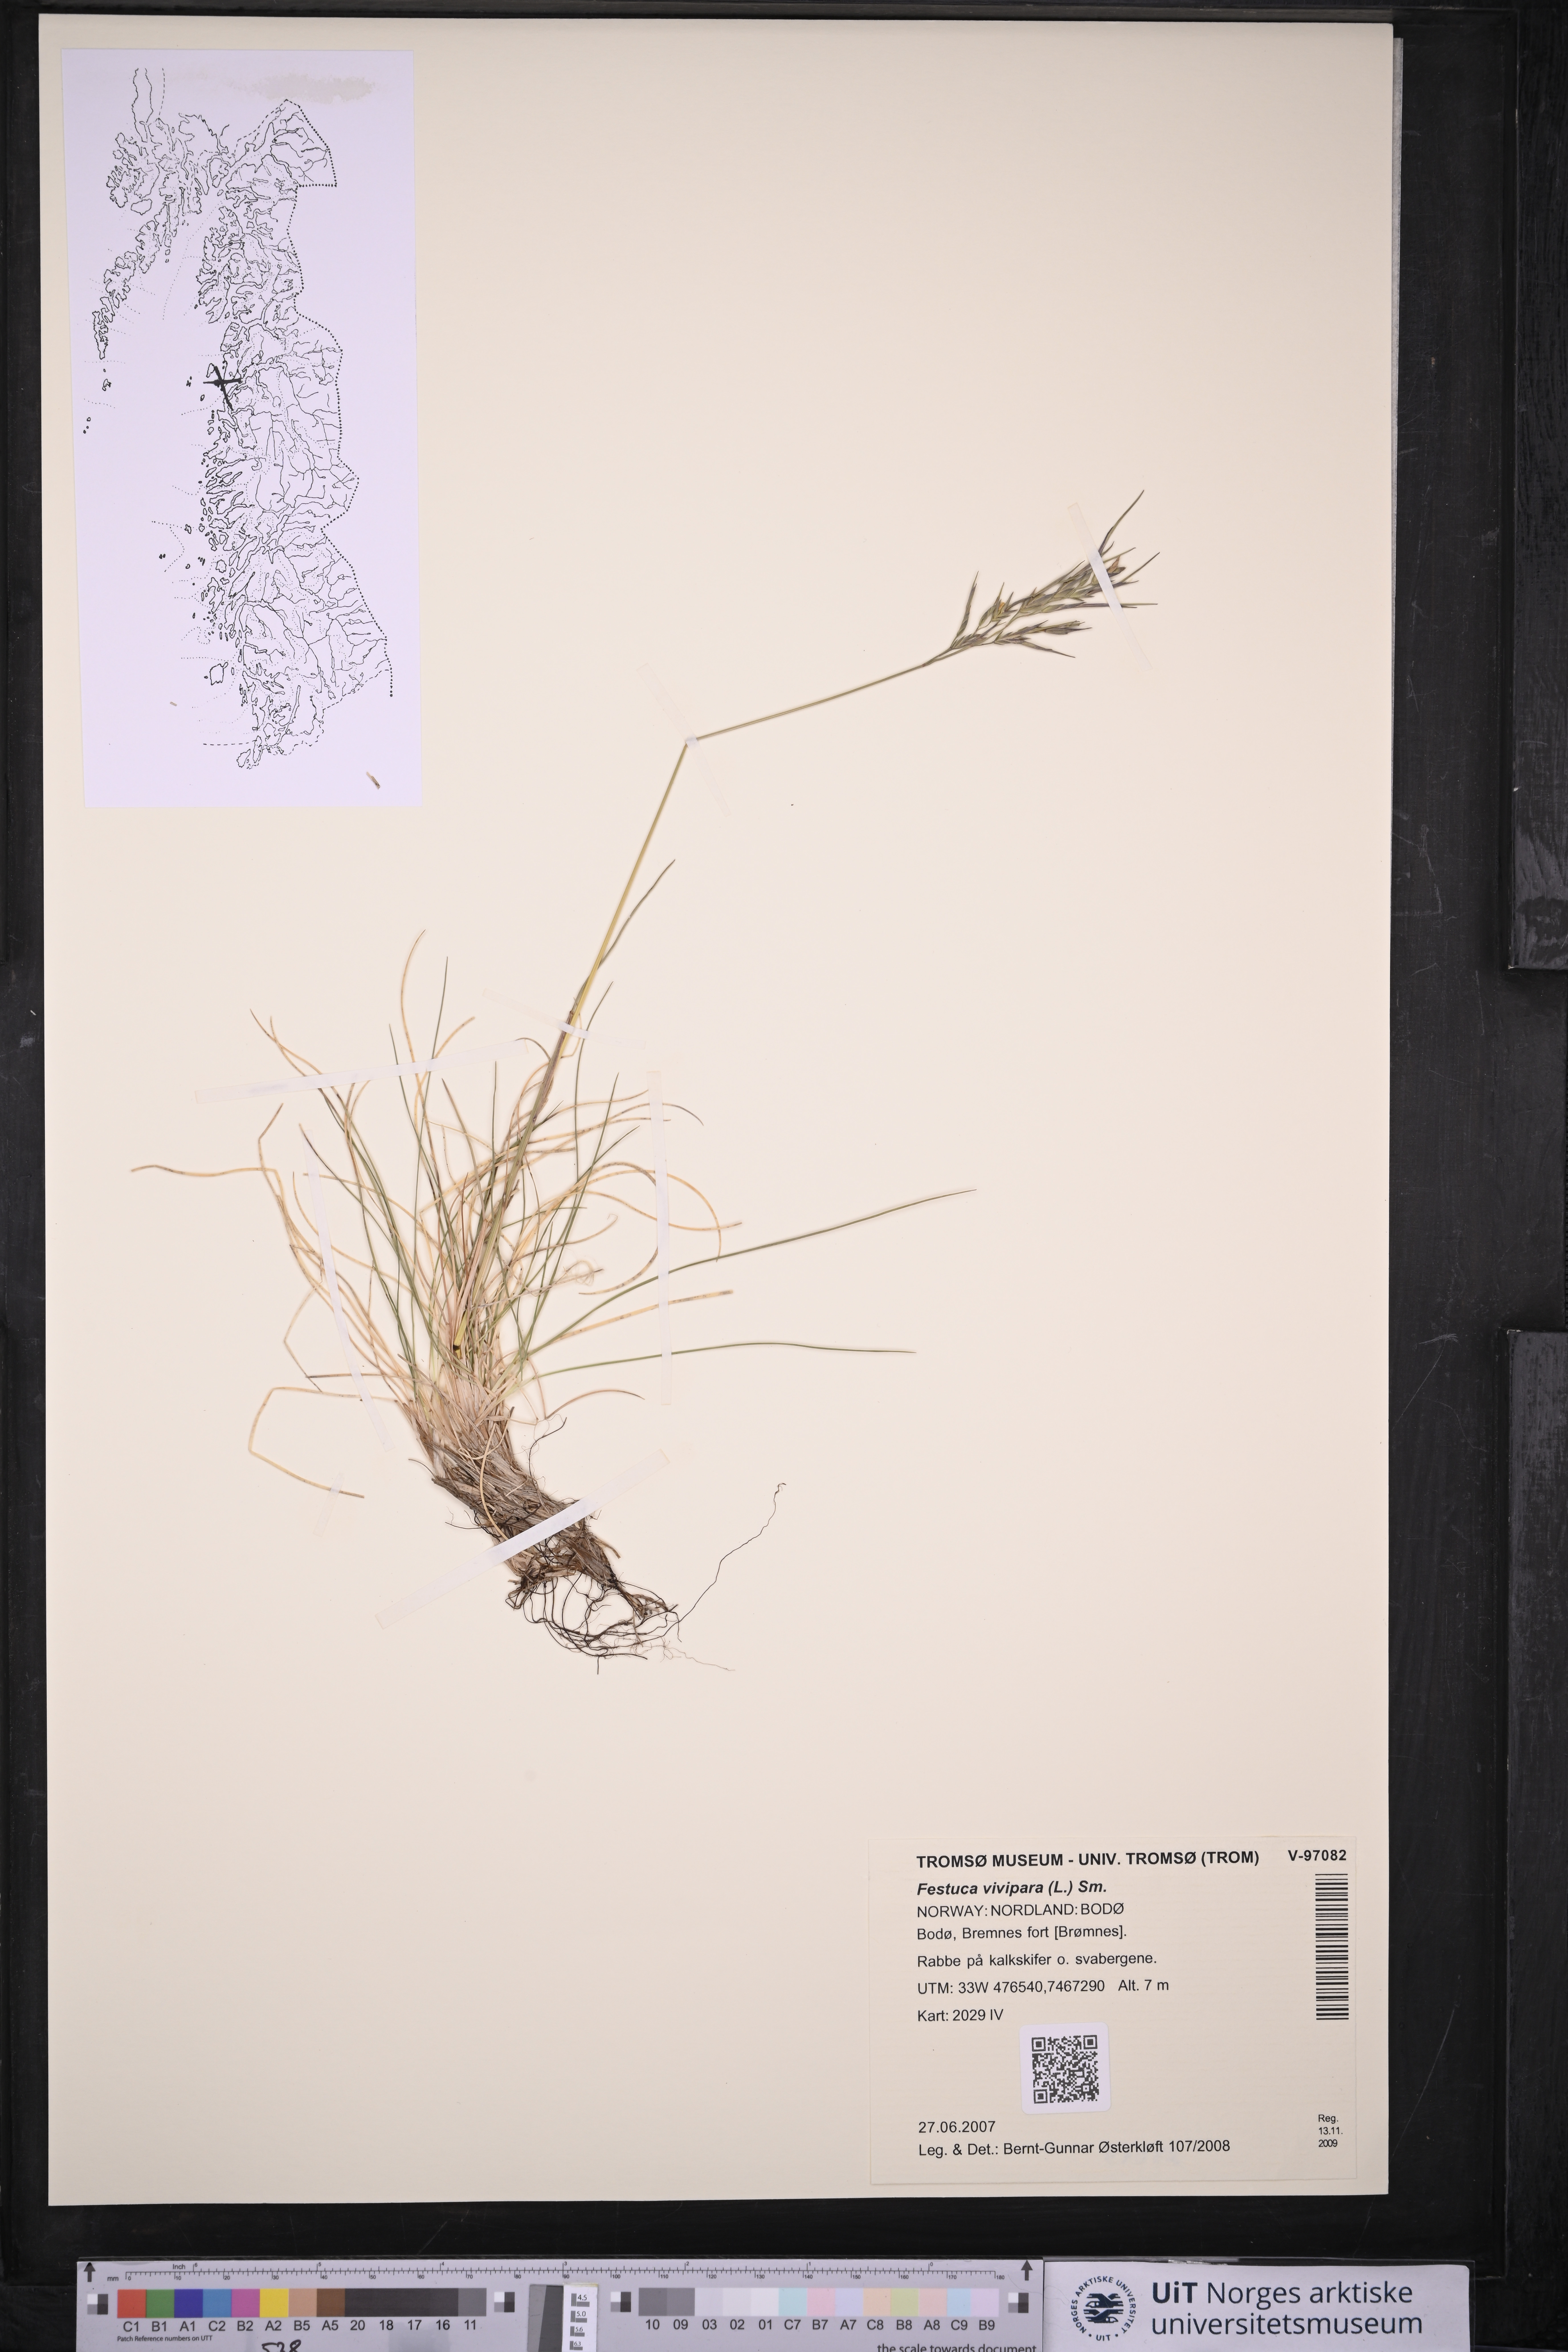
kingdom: Plantae
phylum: Tracheophyta
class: Liliopsida
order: Poales
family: Poaceae
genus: Festuca
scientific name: Festuca vivipara
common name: Viviparous sheep's-fescue
